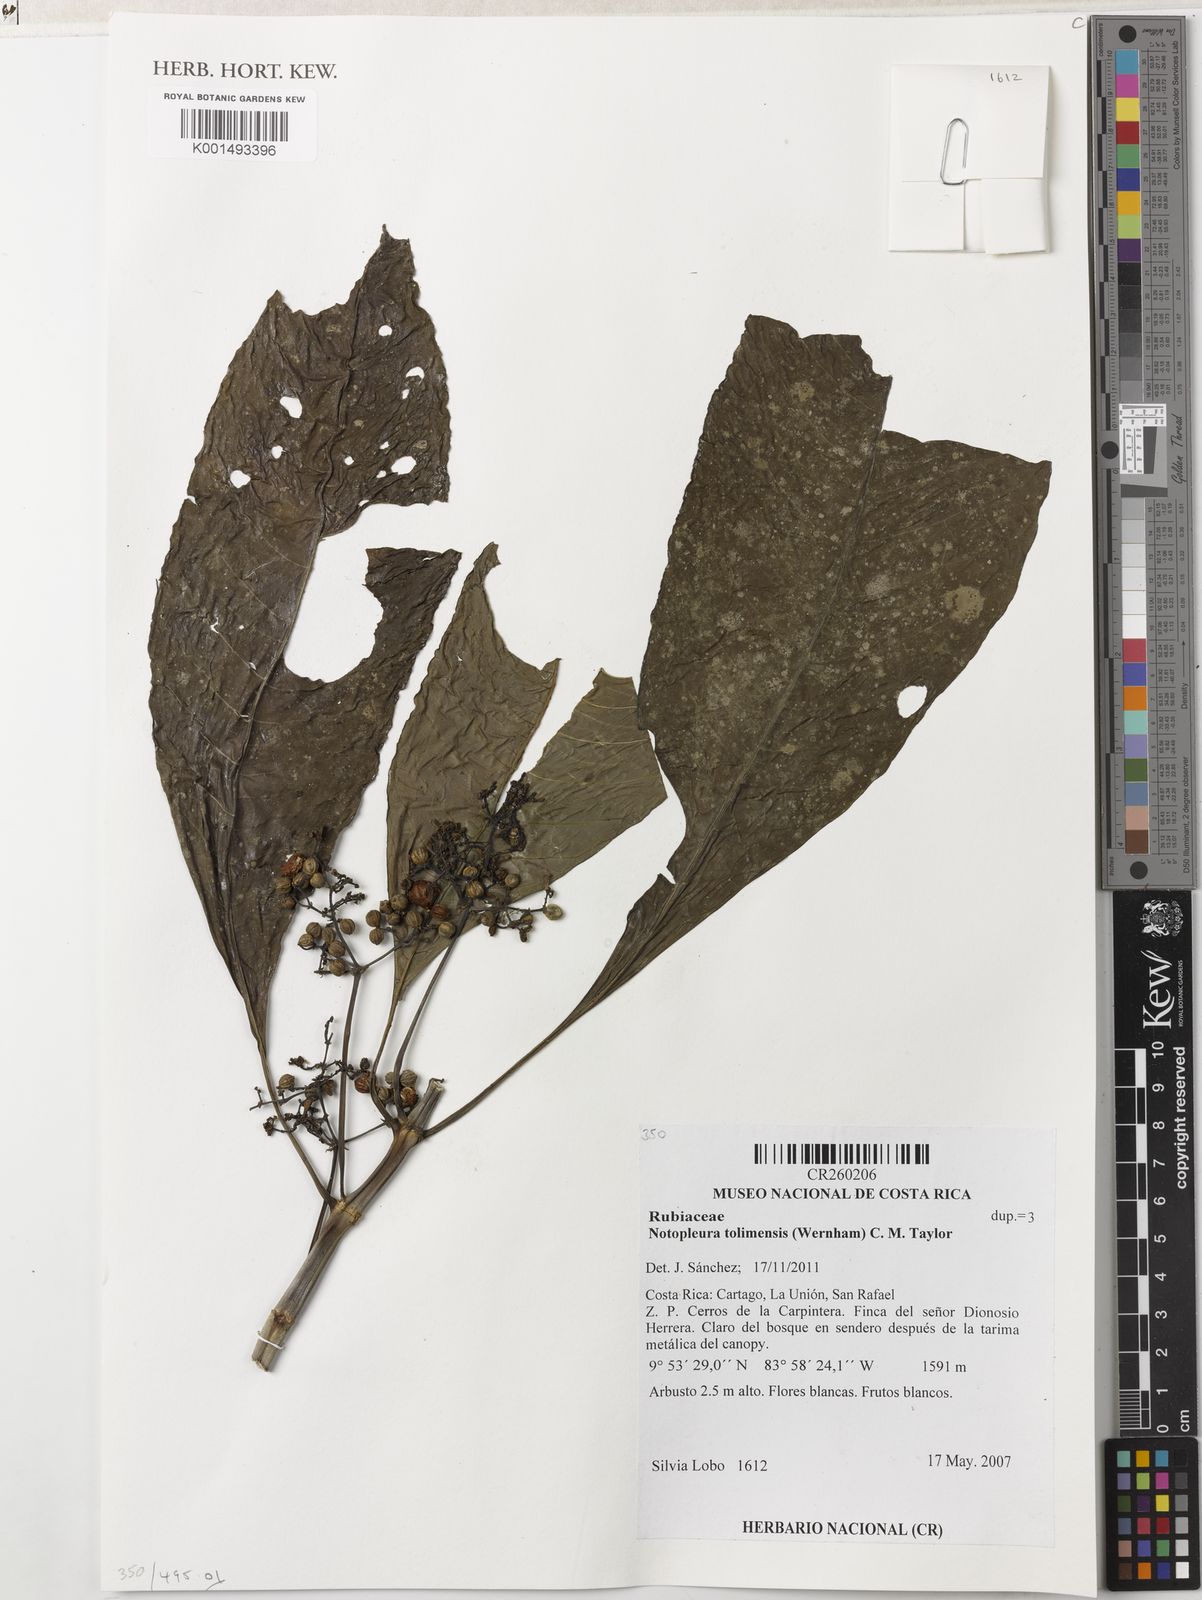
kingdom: Plantae
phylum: Tracheophyta
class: Magnoliopsida
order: Gentianales
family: Rubiaceae
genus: Notopleura
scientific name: Notopleura tolimensis
